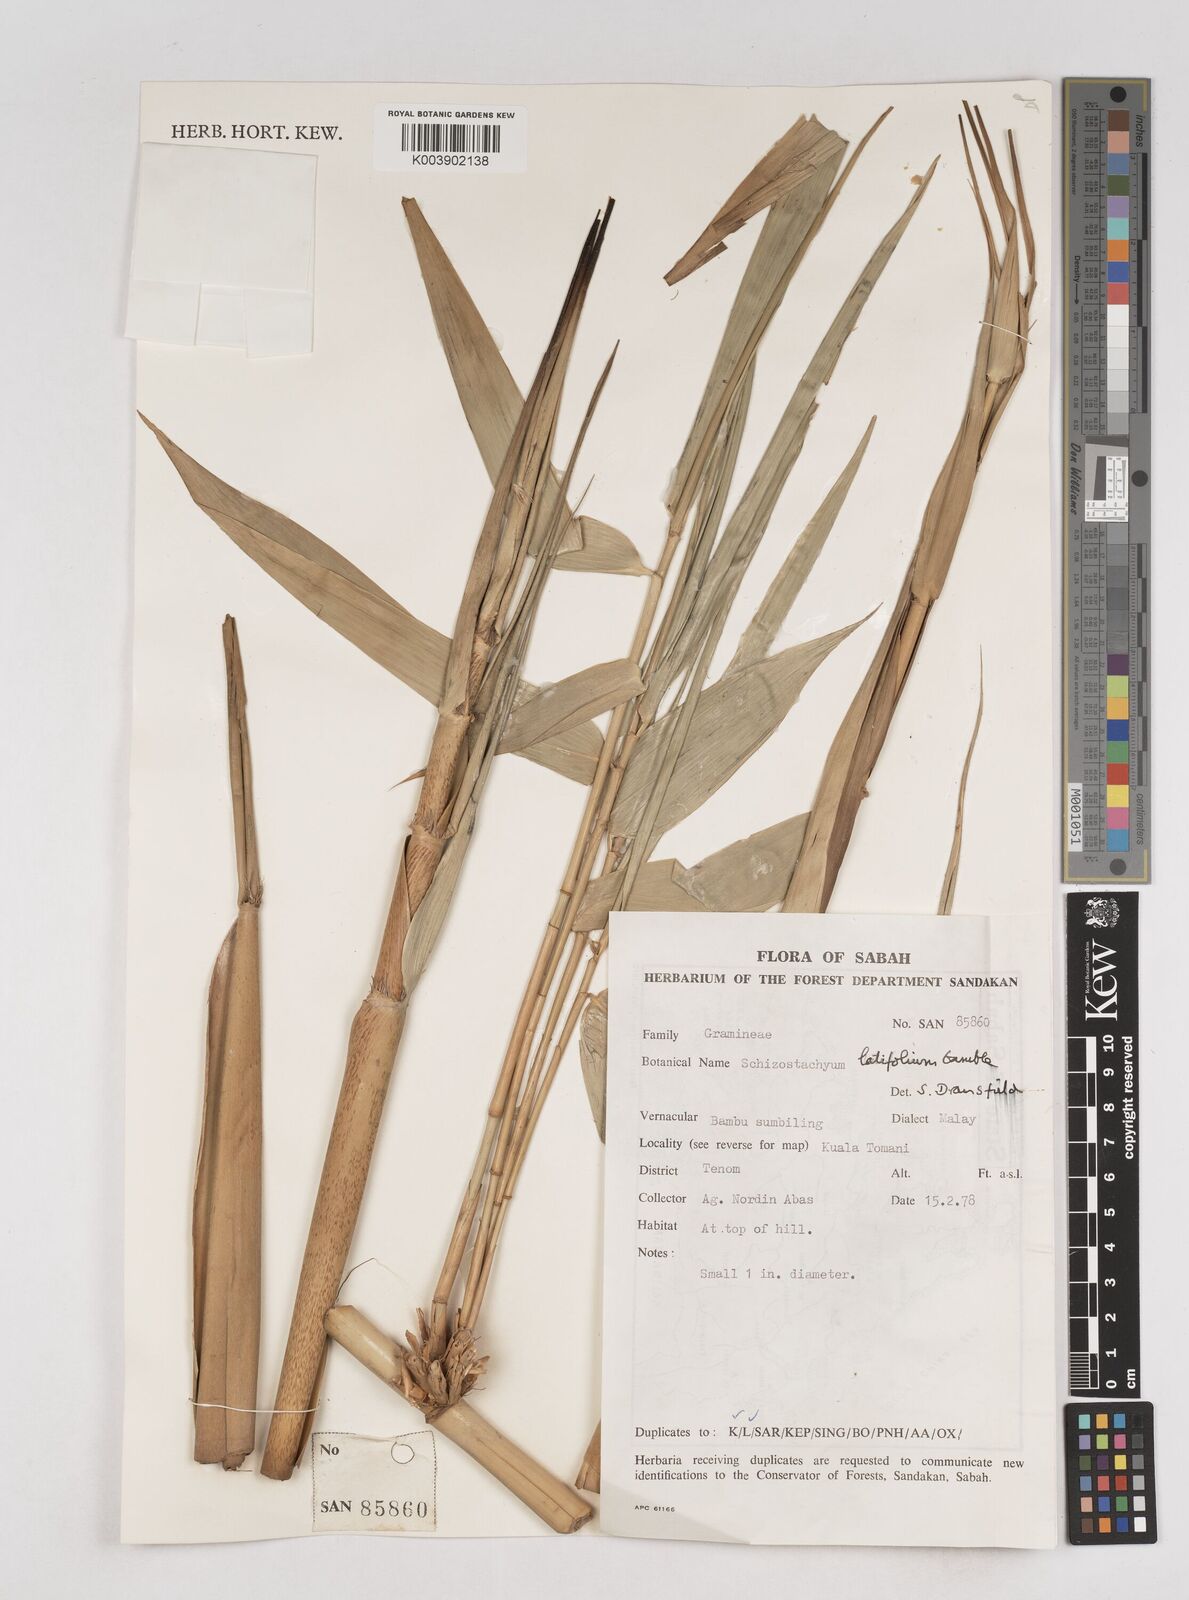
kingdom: Plantae
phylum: Tracheophyta
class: Liliopsida
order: Poales
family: Poaceae
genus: Schizostachyum
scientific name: Schizostachyum
